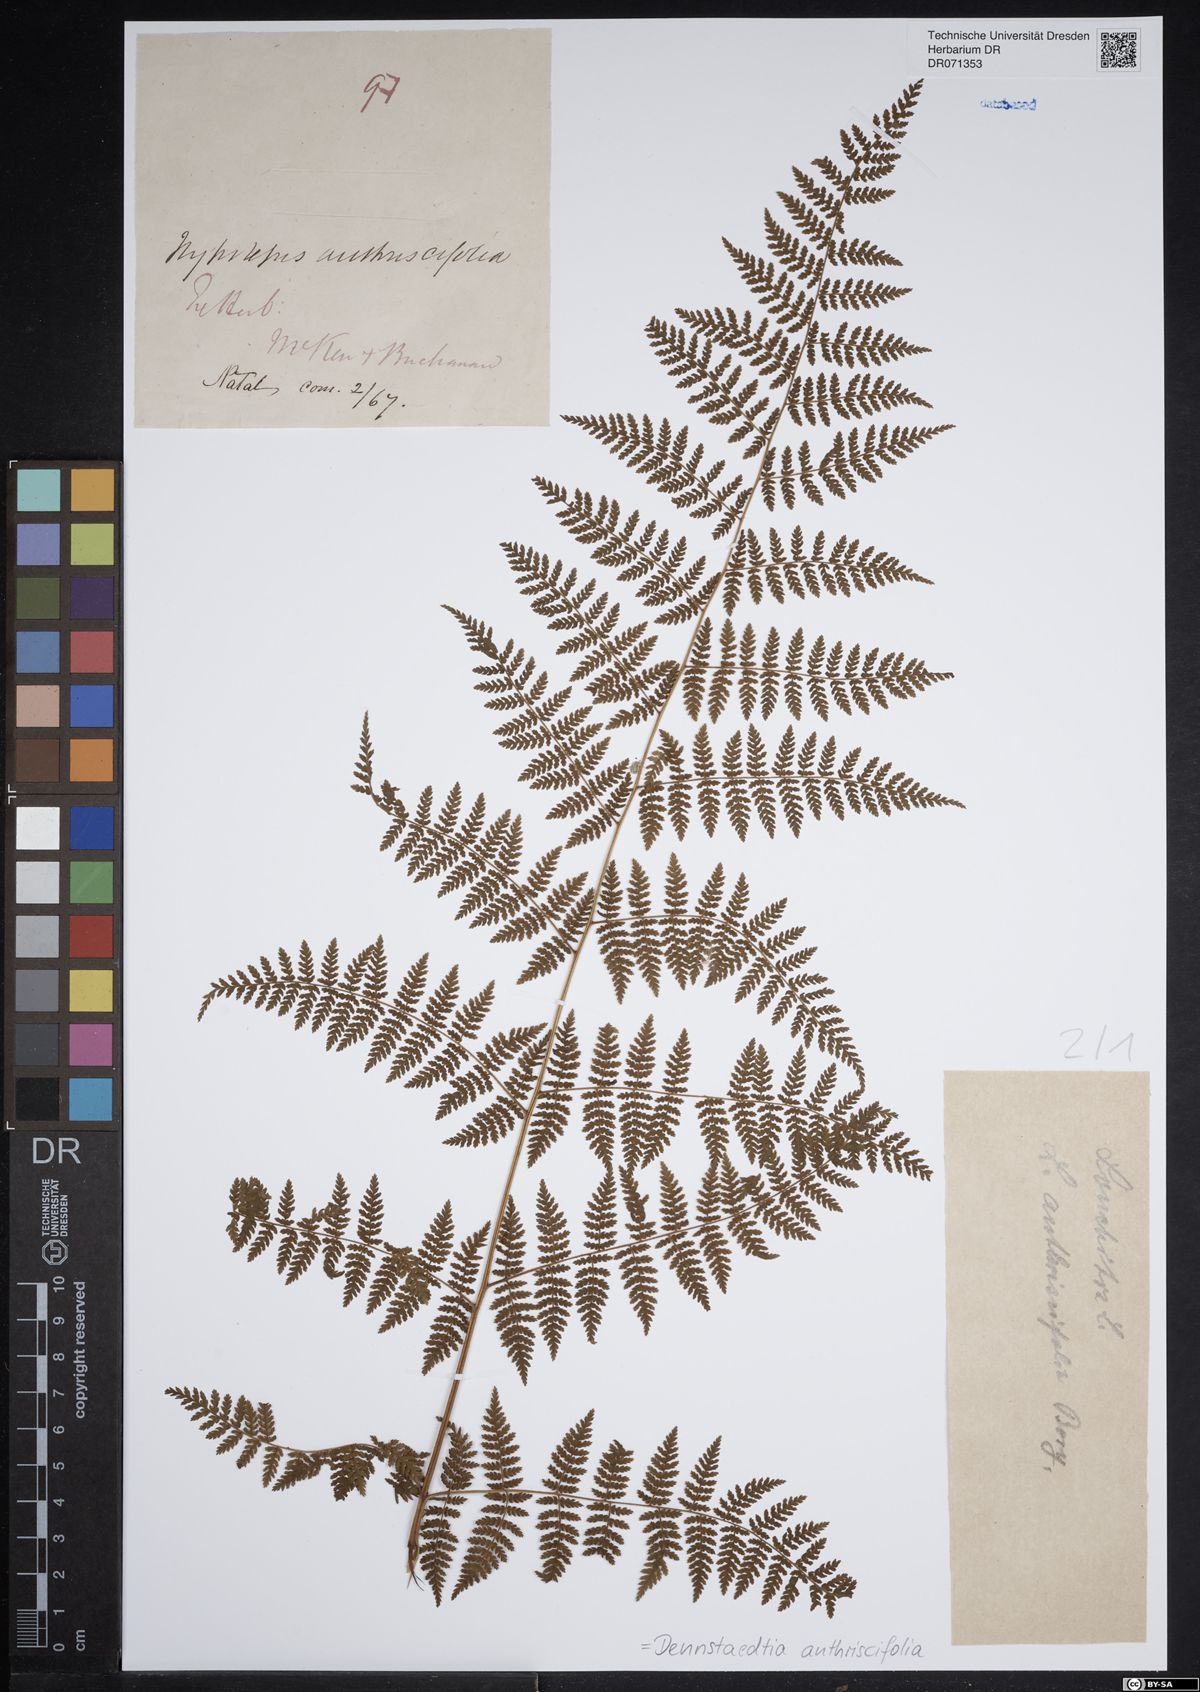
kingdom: Plantae
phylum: Tracheophyta
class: Polypodiopsida
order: Polypodiales
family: Dennstaedtiaceae
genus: Dennstaedtia
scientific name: Dennstaedtia anthriscifolia
